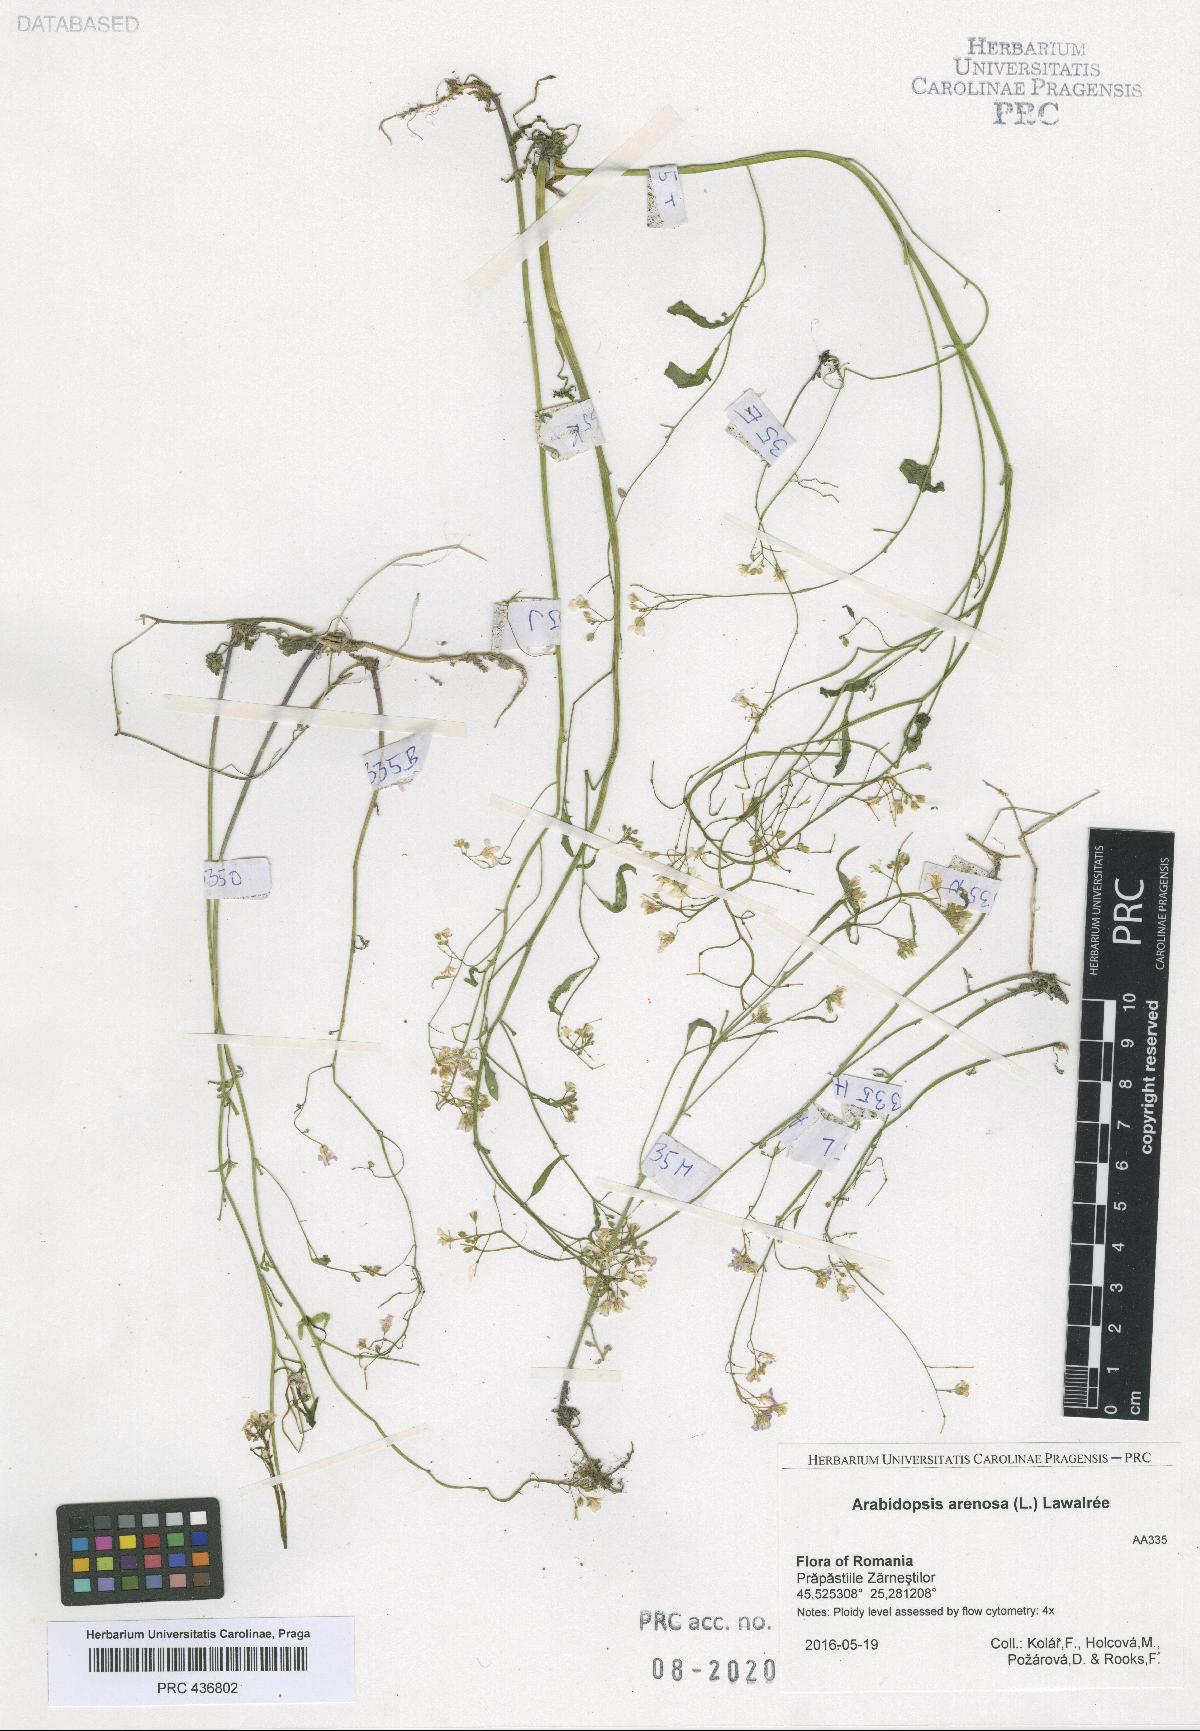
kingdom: Plantae
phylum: Tracheophyta
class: Magnoliopsida
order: Brassicales
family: Brassicaceae
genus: Arabidopsis
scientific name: Arabidopsis arenosa
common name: Sand rock-cress
